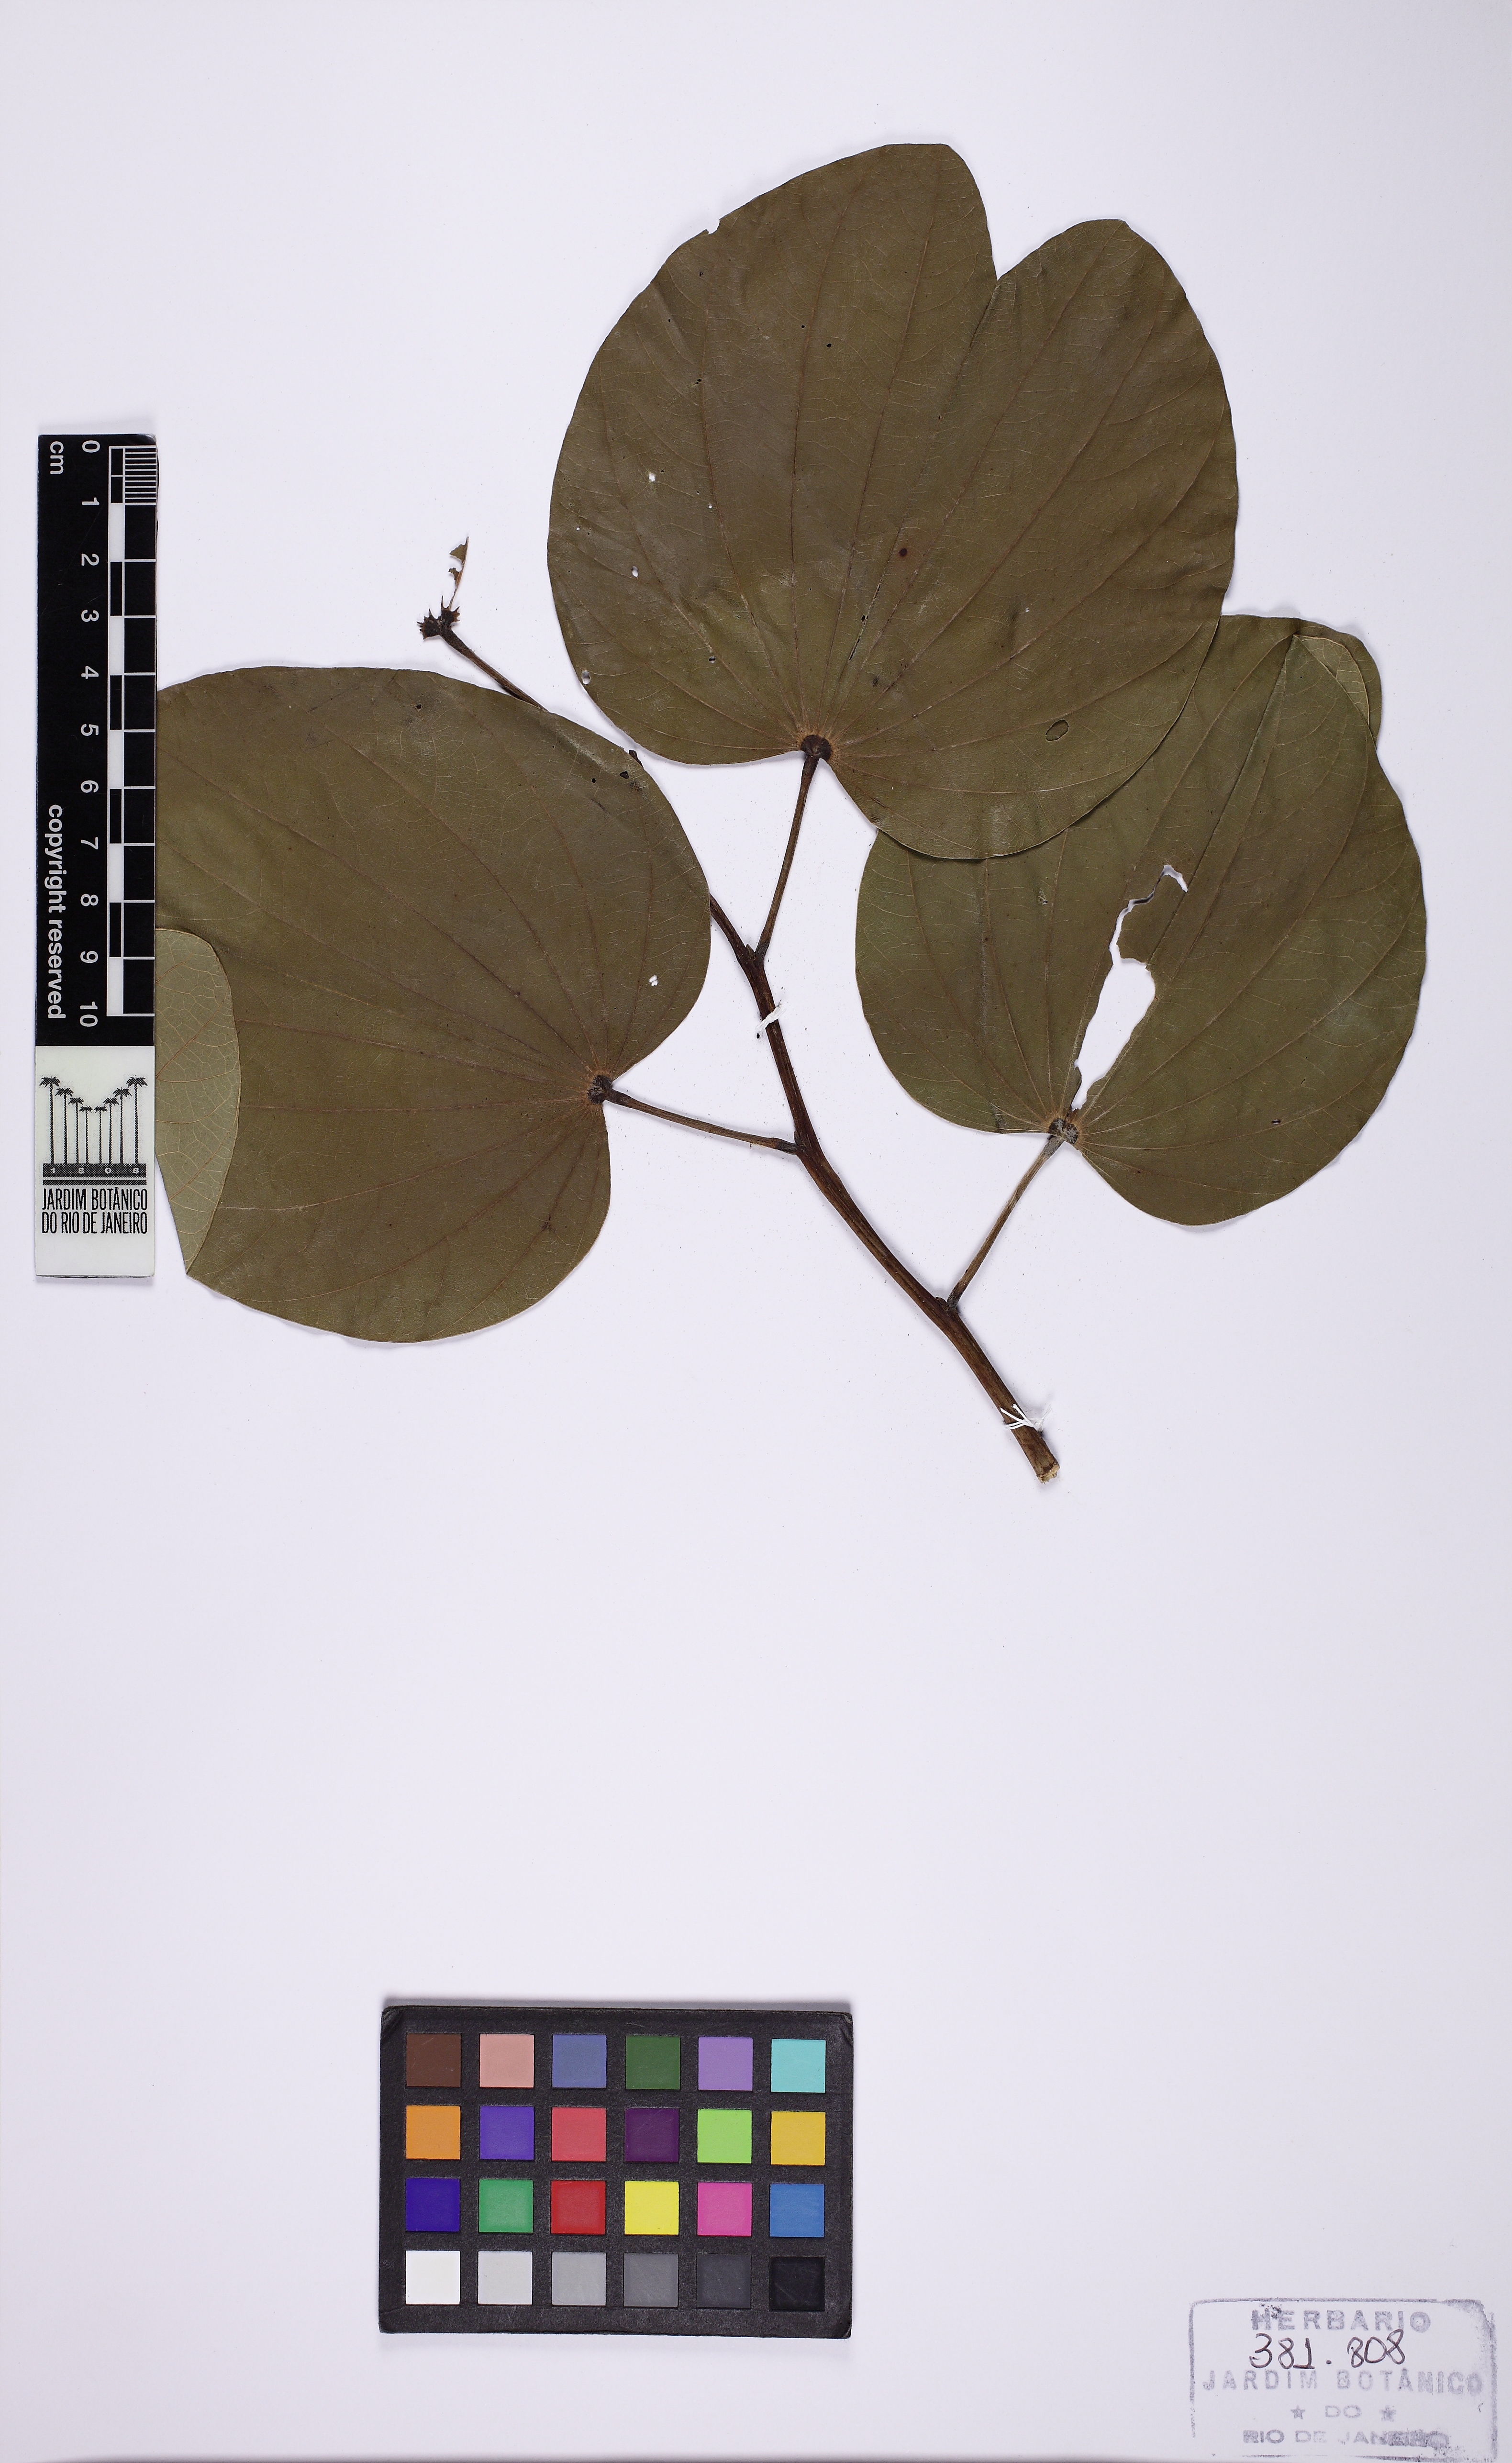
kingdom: Plantae
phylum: Tracheophyta
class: Magnoliopsida
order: Fabales
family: Fabaceae
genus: Bauhinia
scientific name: Bauhinia variegata
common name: Mountain ebony
